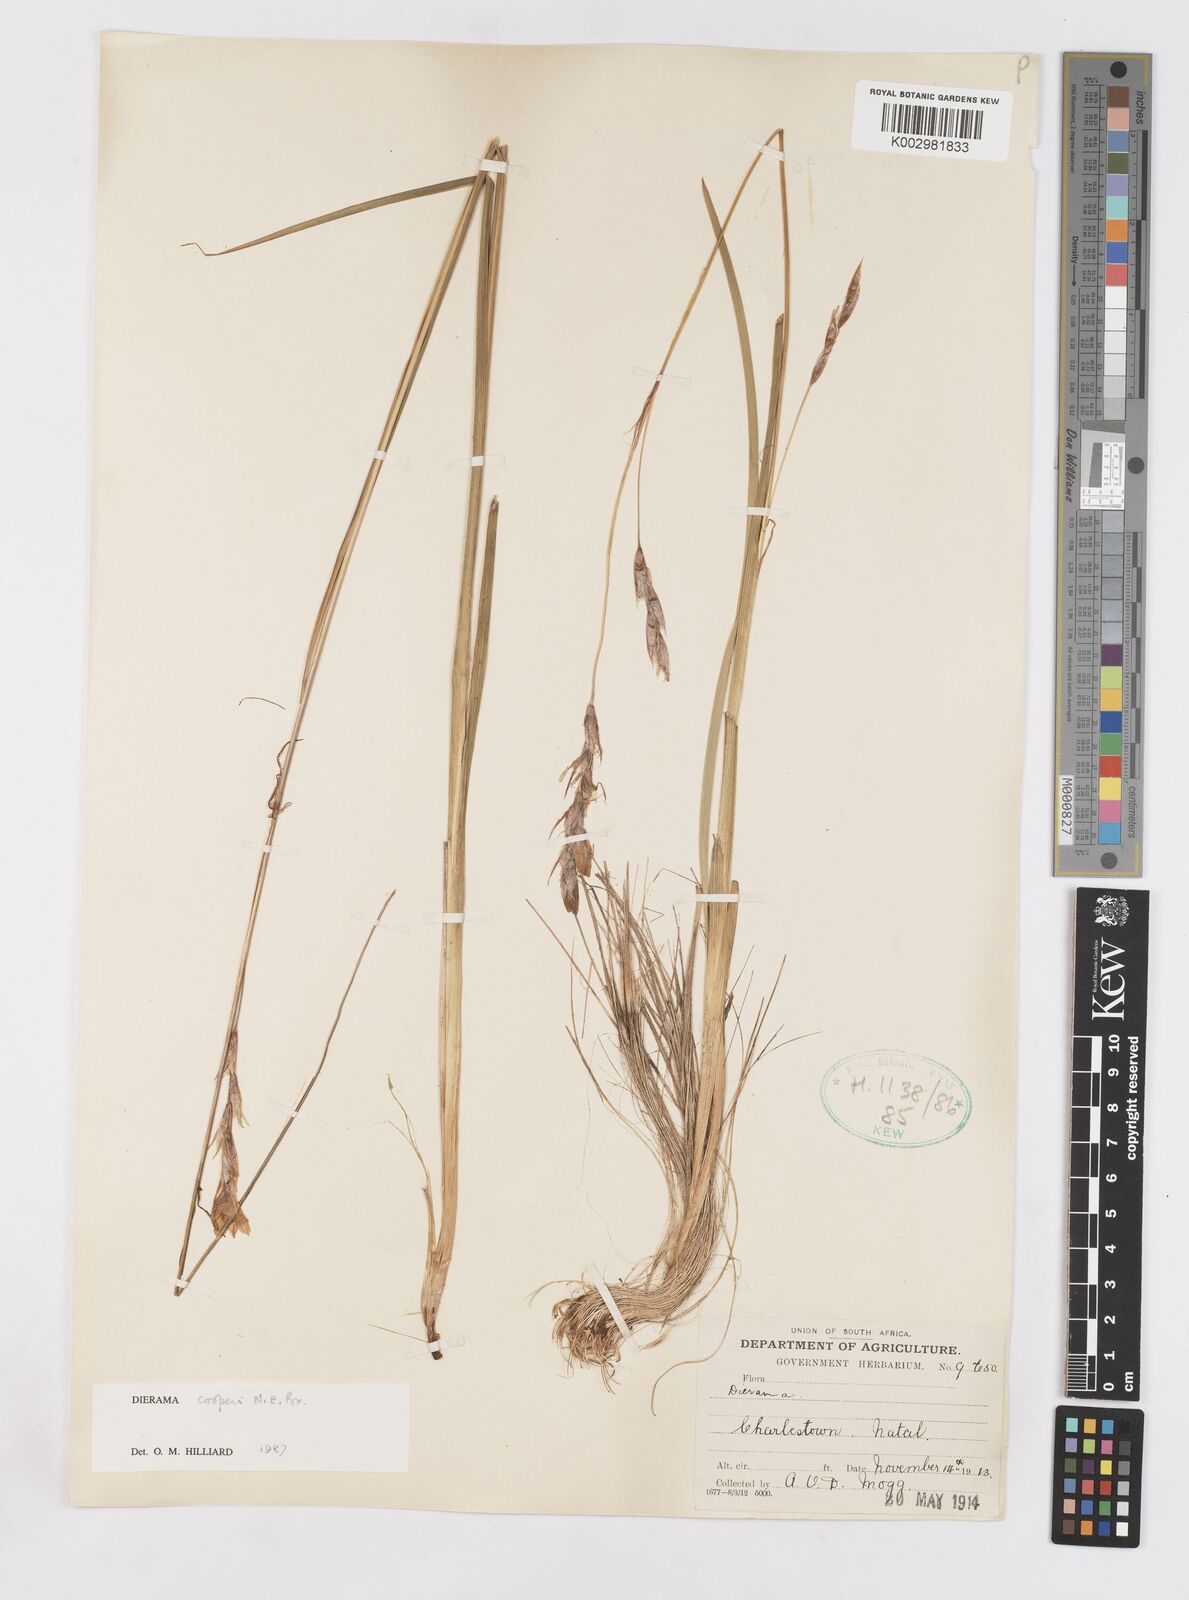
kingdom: Plantae
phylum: Tracheophyta
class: Liliopsida
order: Asparagales
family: Iridaceae
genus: Dierama
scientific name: Dierama cooperi
